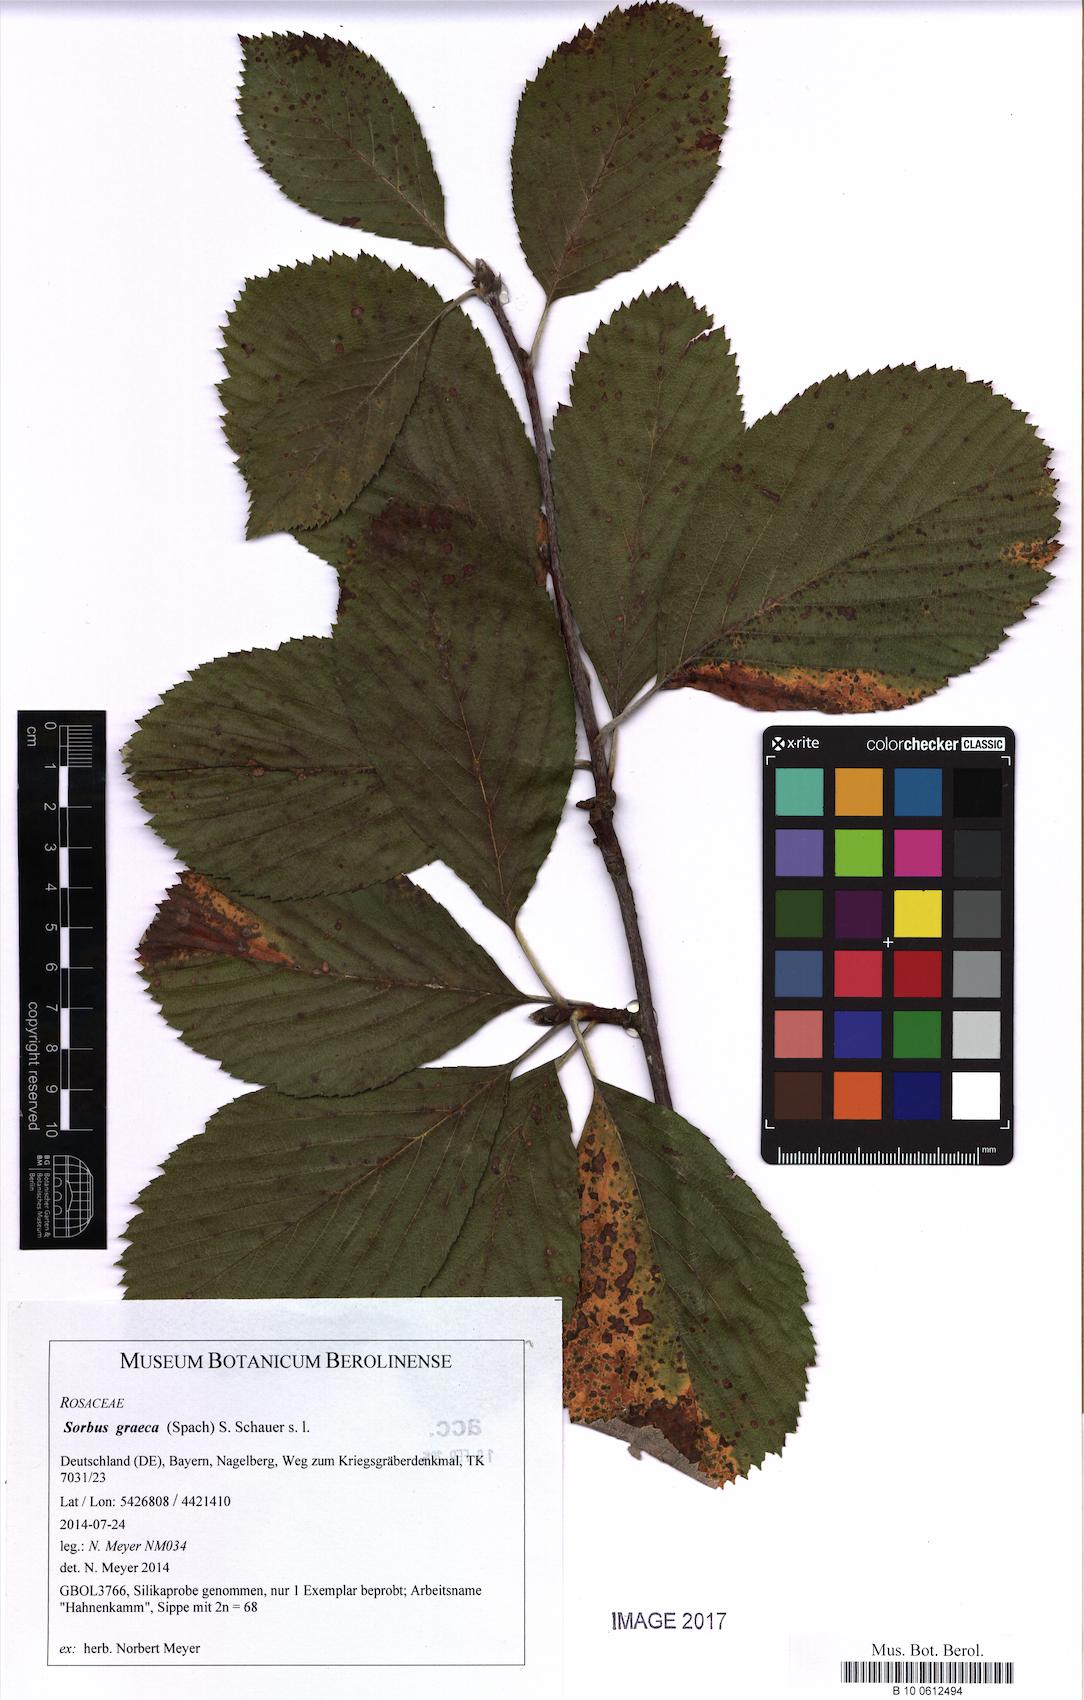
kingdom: Plantae
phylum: Tracheophyta
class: Magnoliopsida
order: Rosales
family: Rosaceae
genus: Aria
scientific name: Aria graeca
